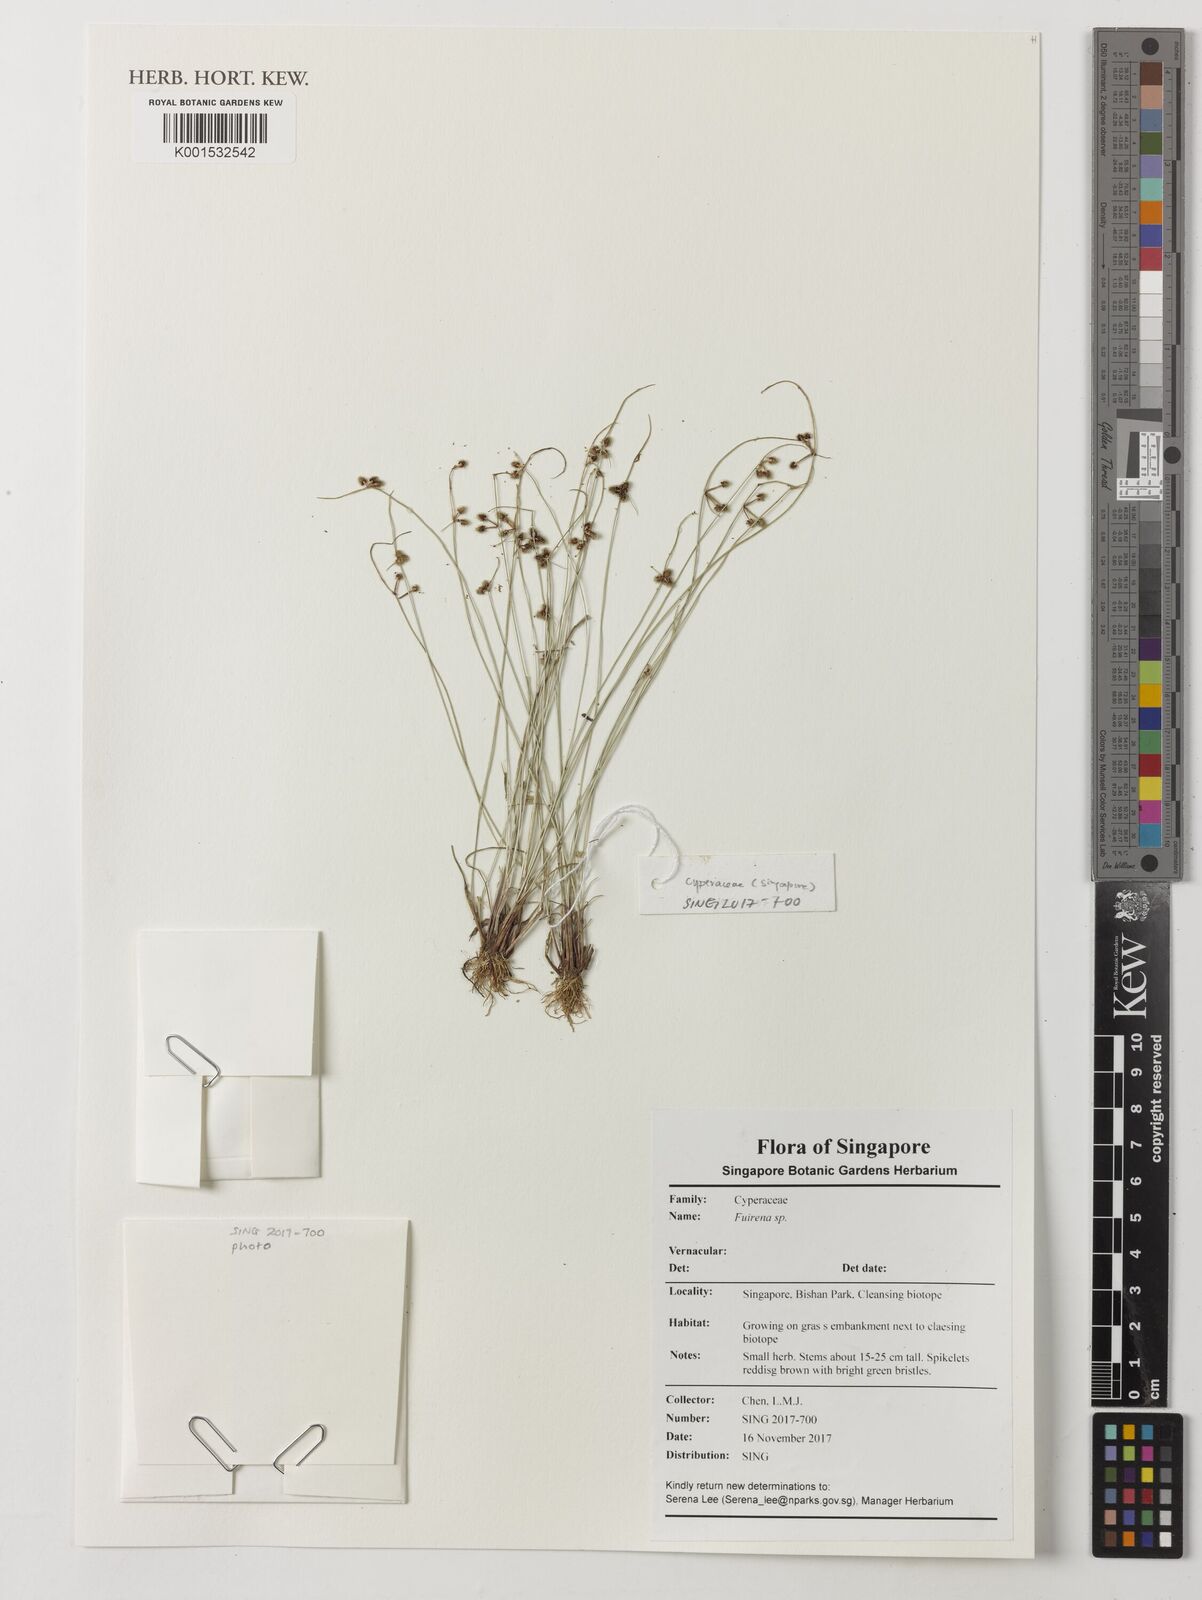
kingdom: Plantae
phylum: Tracheophyta
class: Liliopsida
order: Poales
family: Cyperaceae
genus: Fuirena
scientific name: Fuirena
